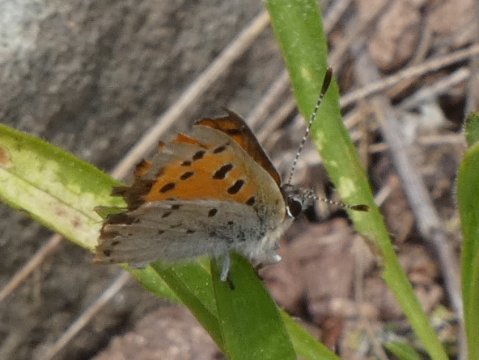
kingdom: Animalia
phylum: Arthropoda
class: Insecta
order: Lepidoptera
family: Lycaenidae
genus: Lycaena
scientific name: Lycaena phlaeas
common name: American Copper
